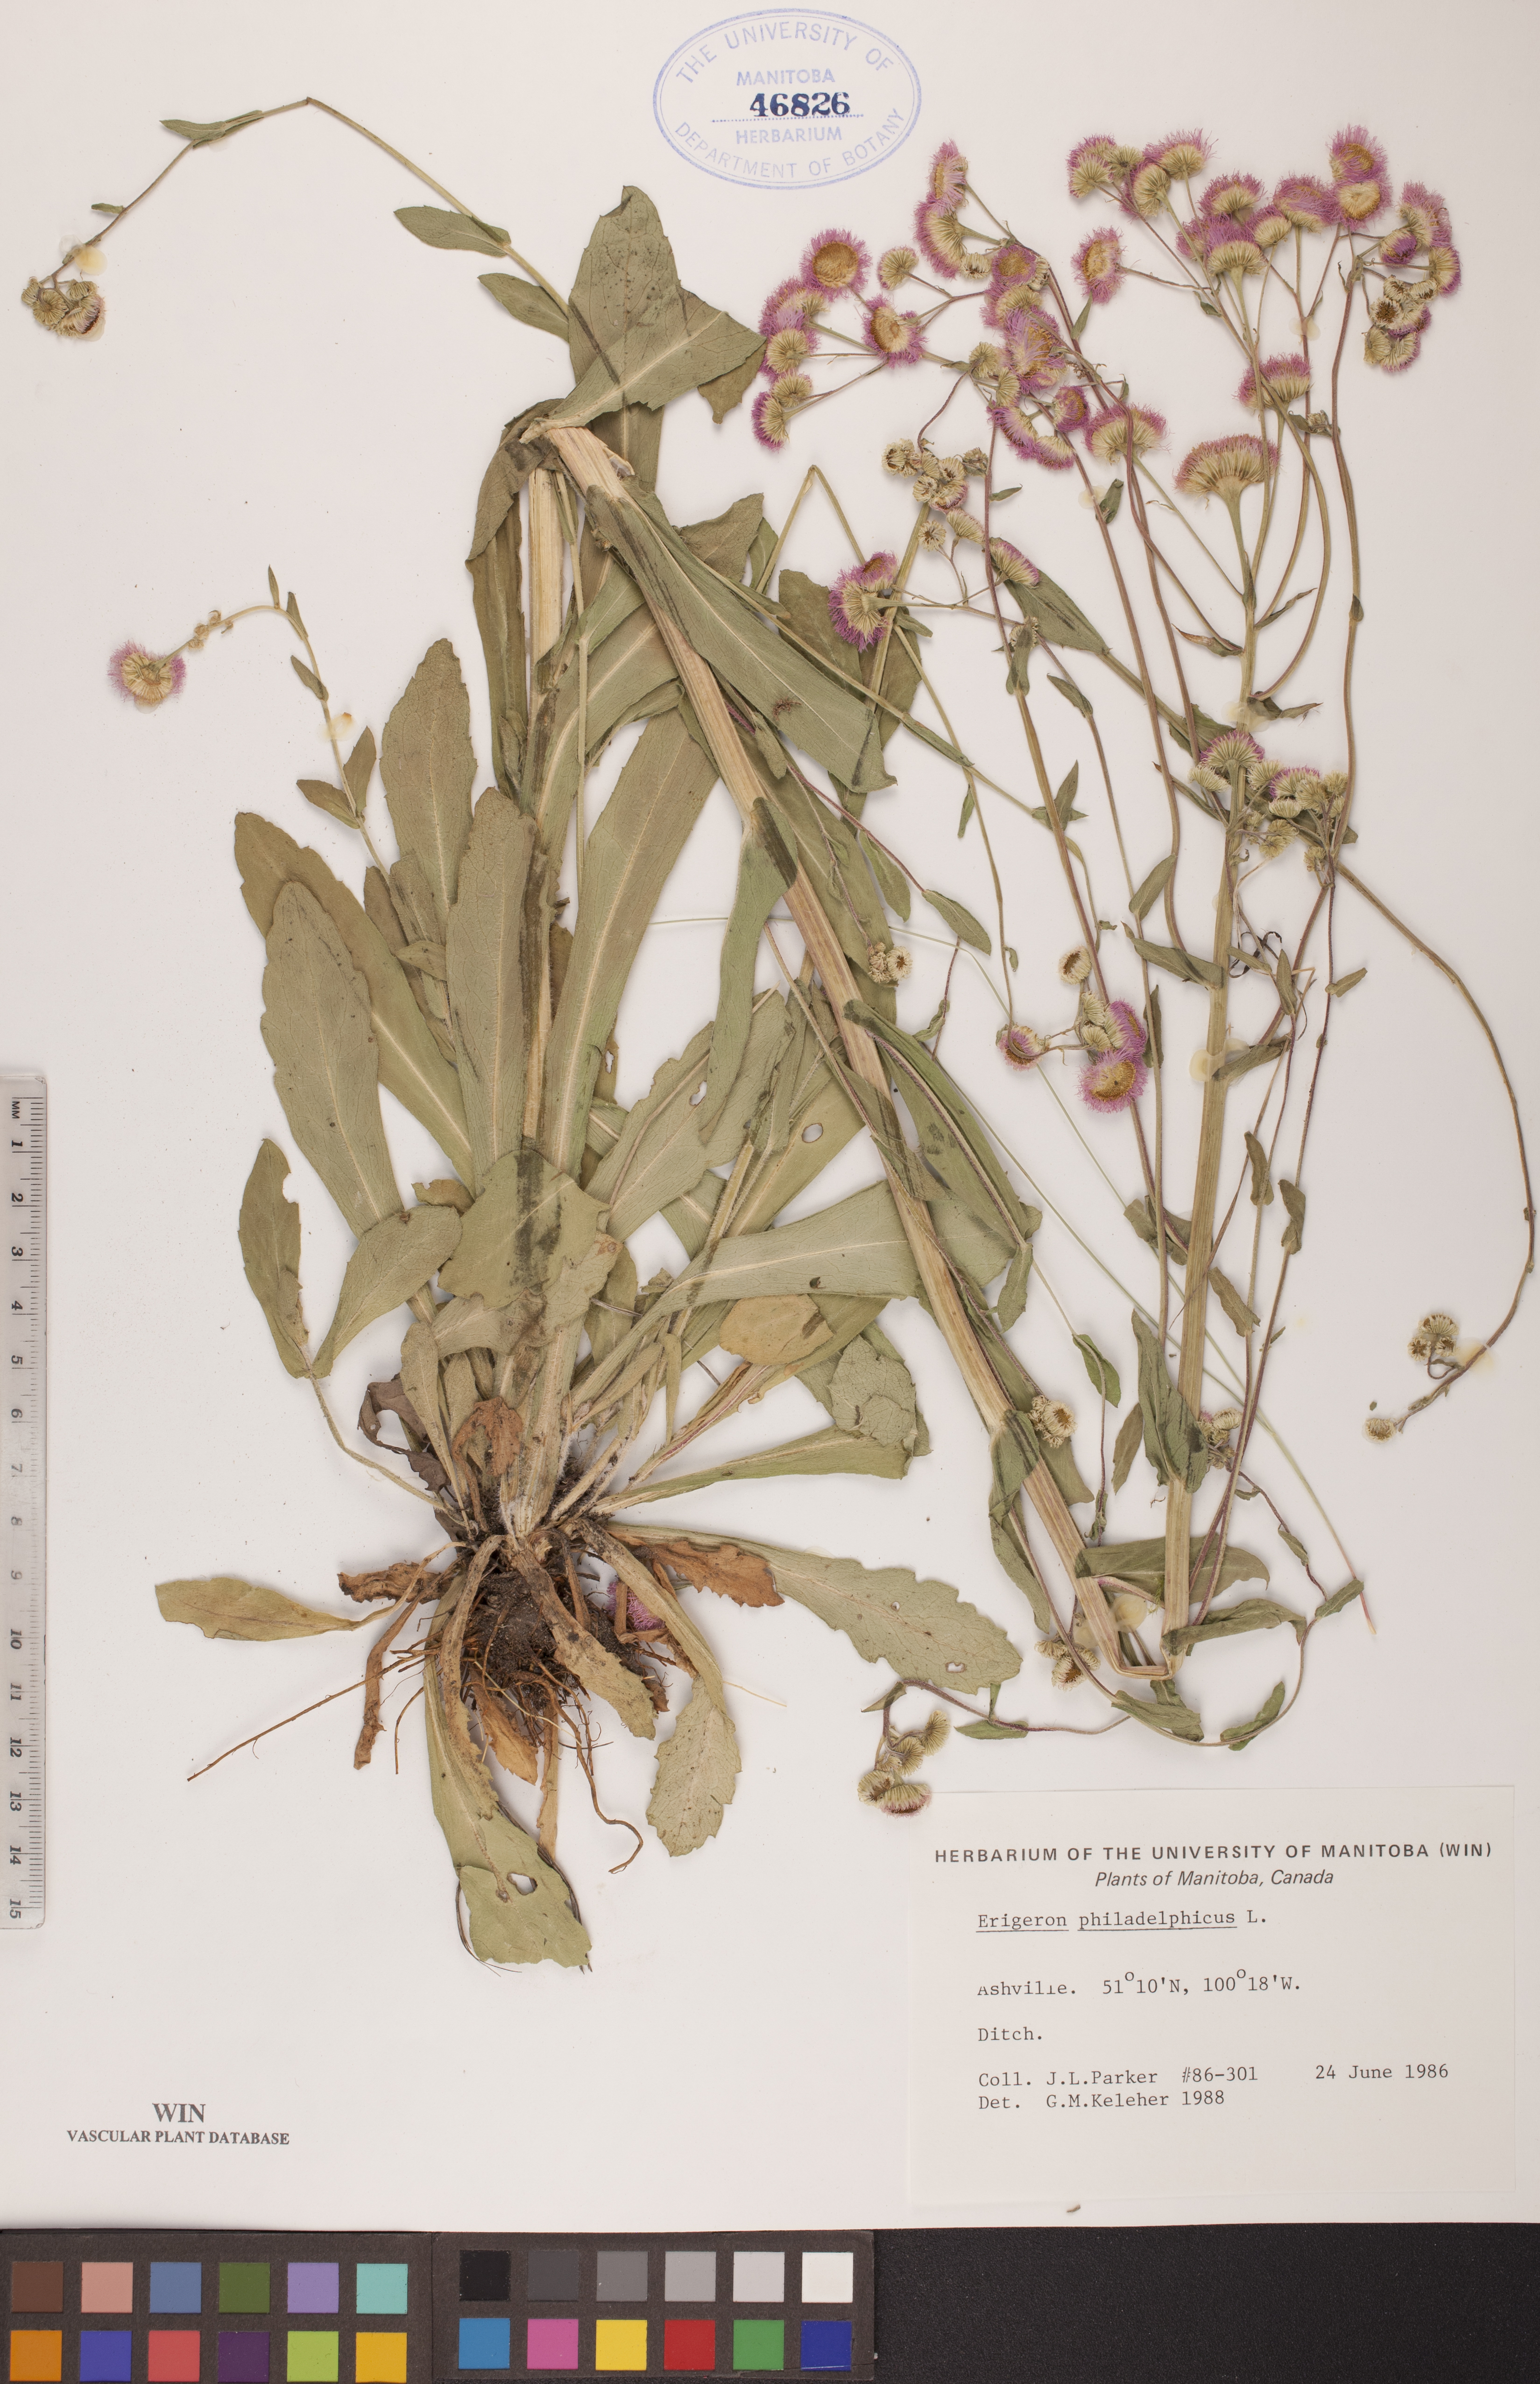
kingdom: Plantae
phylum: Tracheophyta
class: Magnoliopsida
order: Asterales
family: Asteraceae
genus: Erigeron
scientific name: Erigeron philadelphicus
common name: Robin's-plantain
